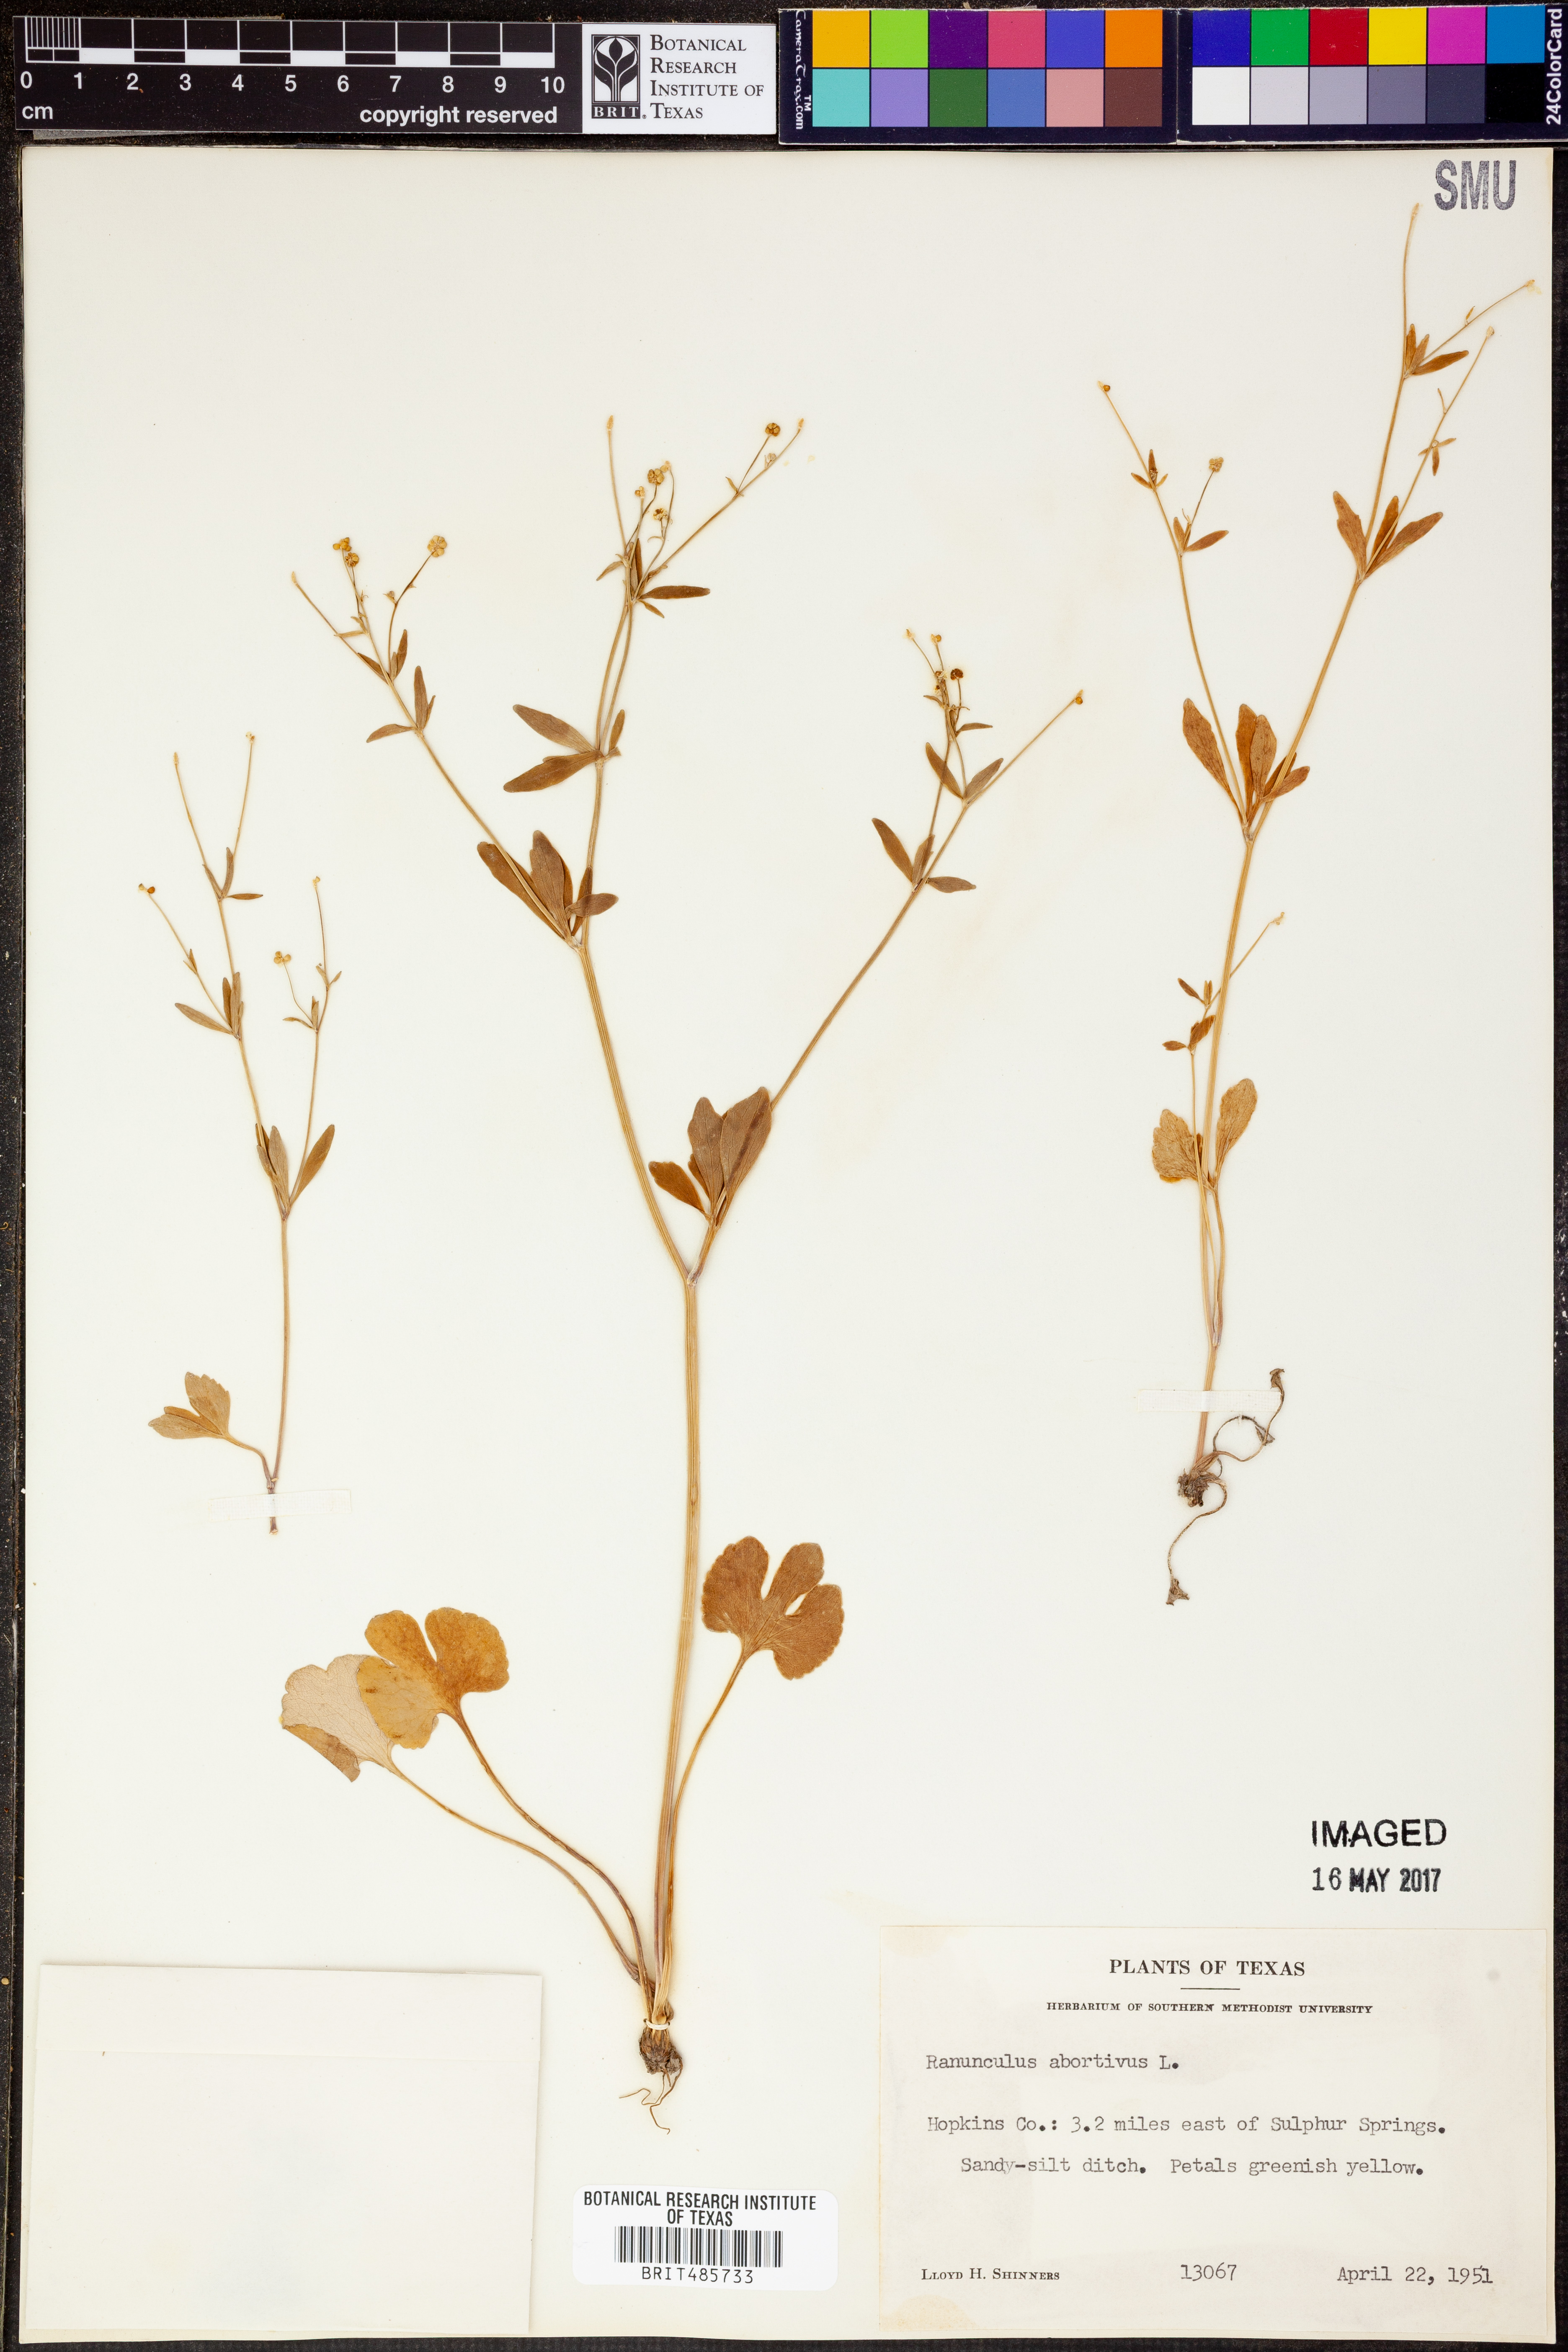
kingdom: Plantae
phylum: Tracheophyta
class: Magnoliopsida
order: Ranunculales
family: Ranunculaceae
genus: Ranunculus
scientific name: Ranunculus abortivus
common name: Early wood buttercup
